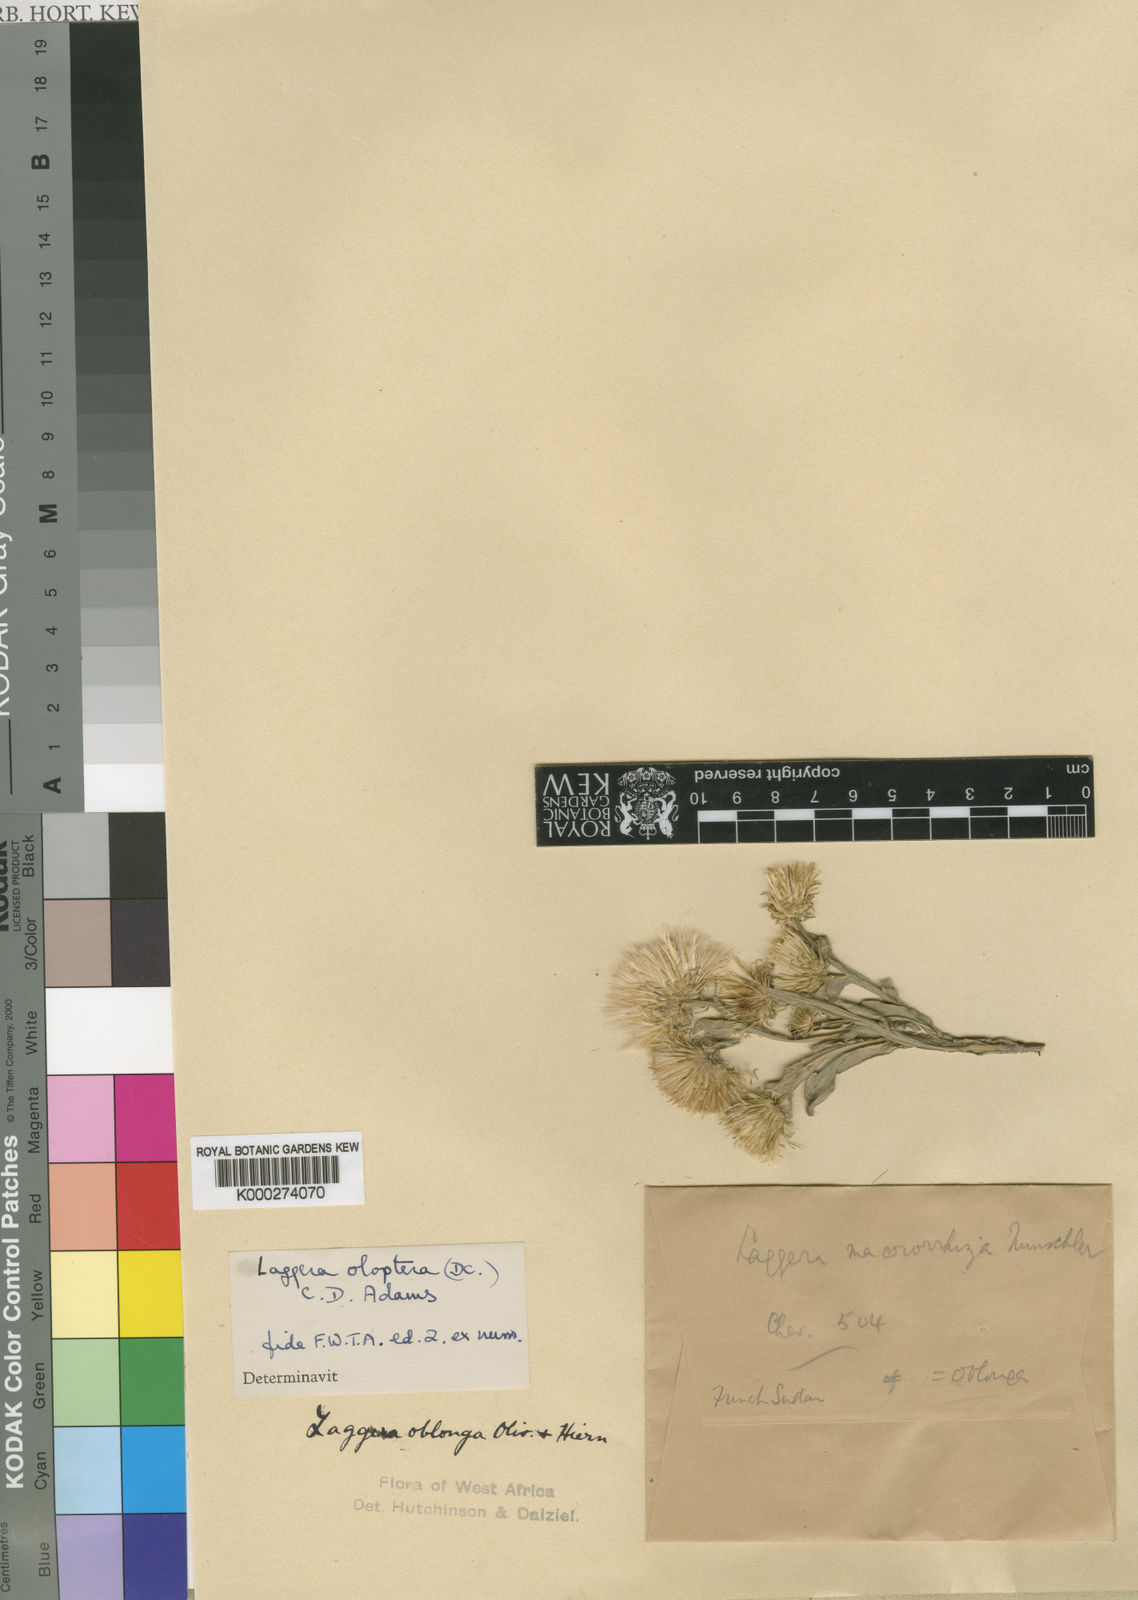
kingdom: Plantae
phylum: Tracheophyta
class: Magnoliopsida
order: Asterales
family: Asteraceae
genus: Laggera
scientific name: Laggera oloptera
